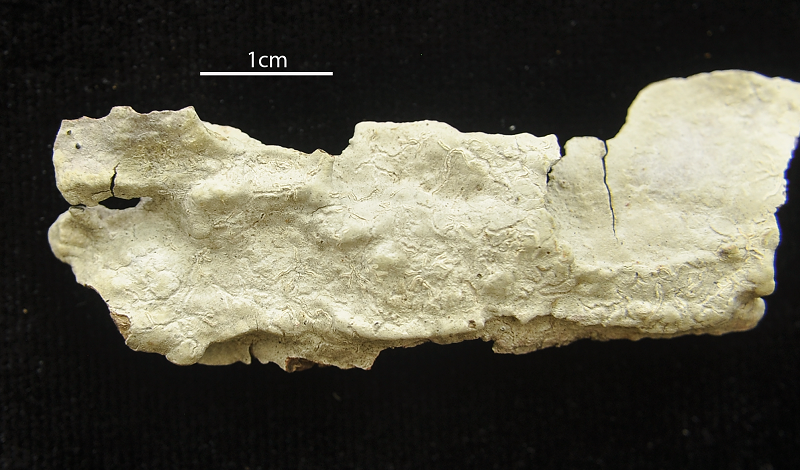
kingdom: Fungi
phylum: Ascomycota
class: Lecanoromycetes
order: Ostropales
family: Graphidaceae
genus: Allographa
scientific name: Allographa upretii
